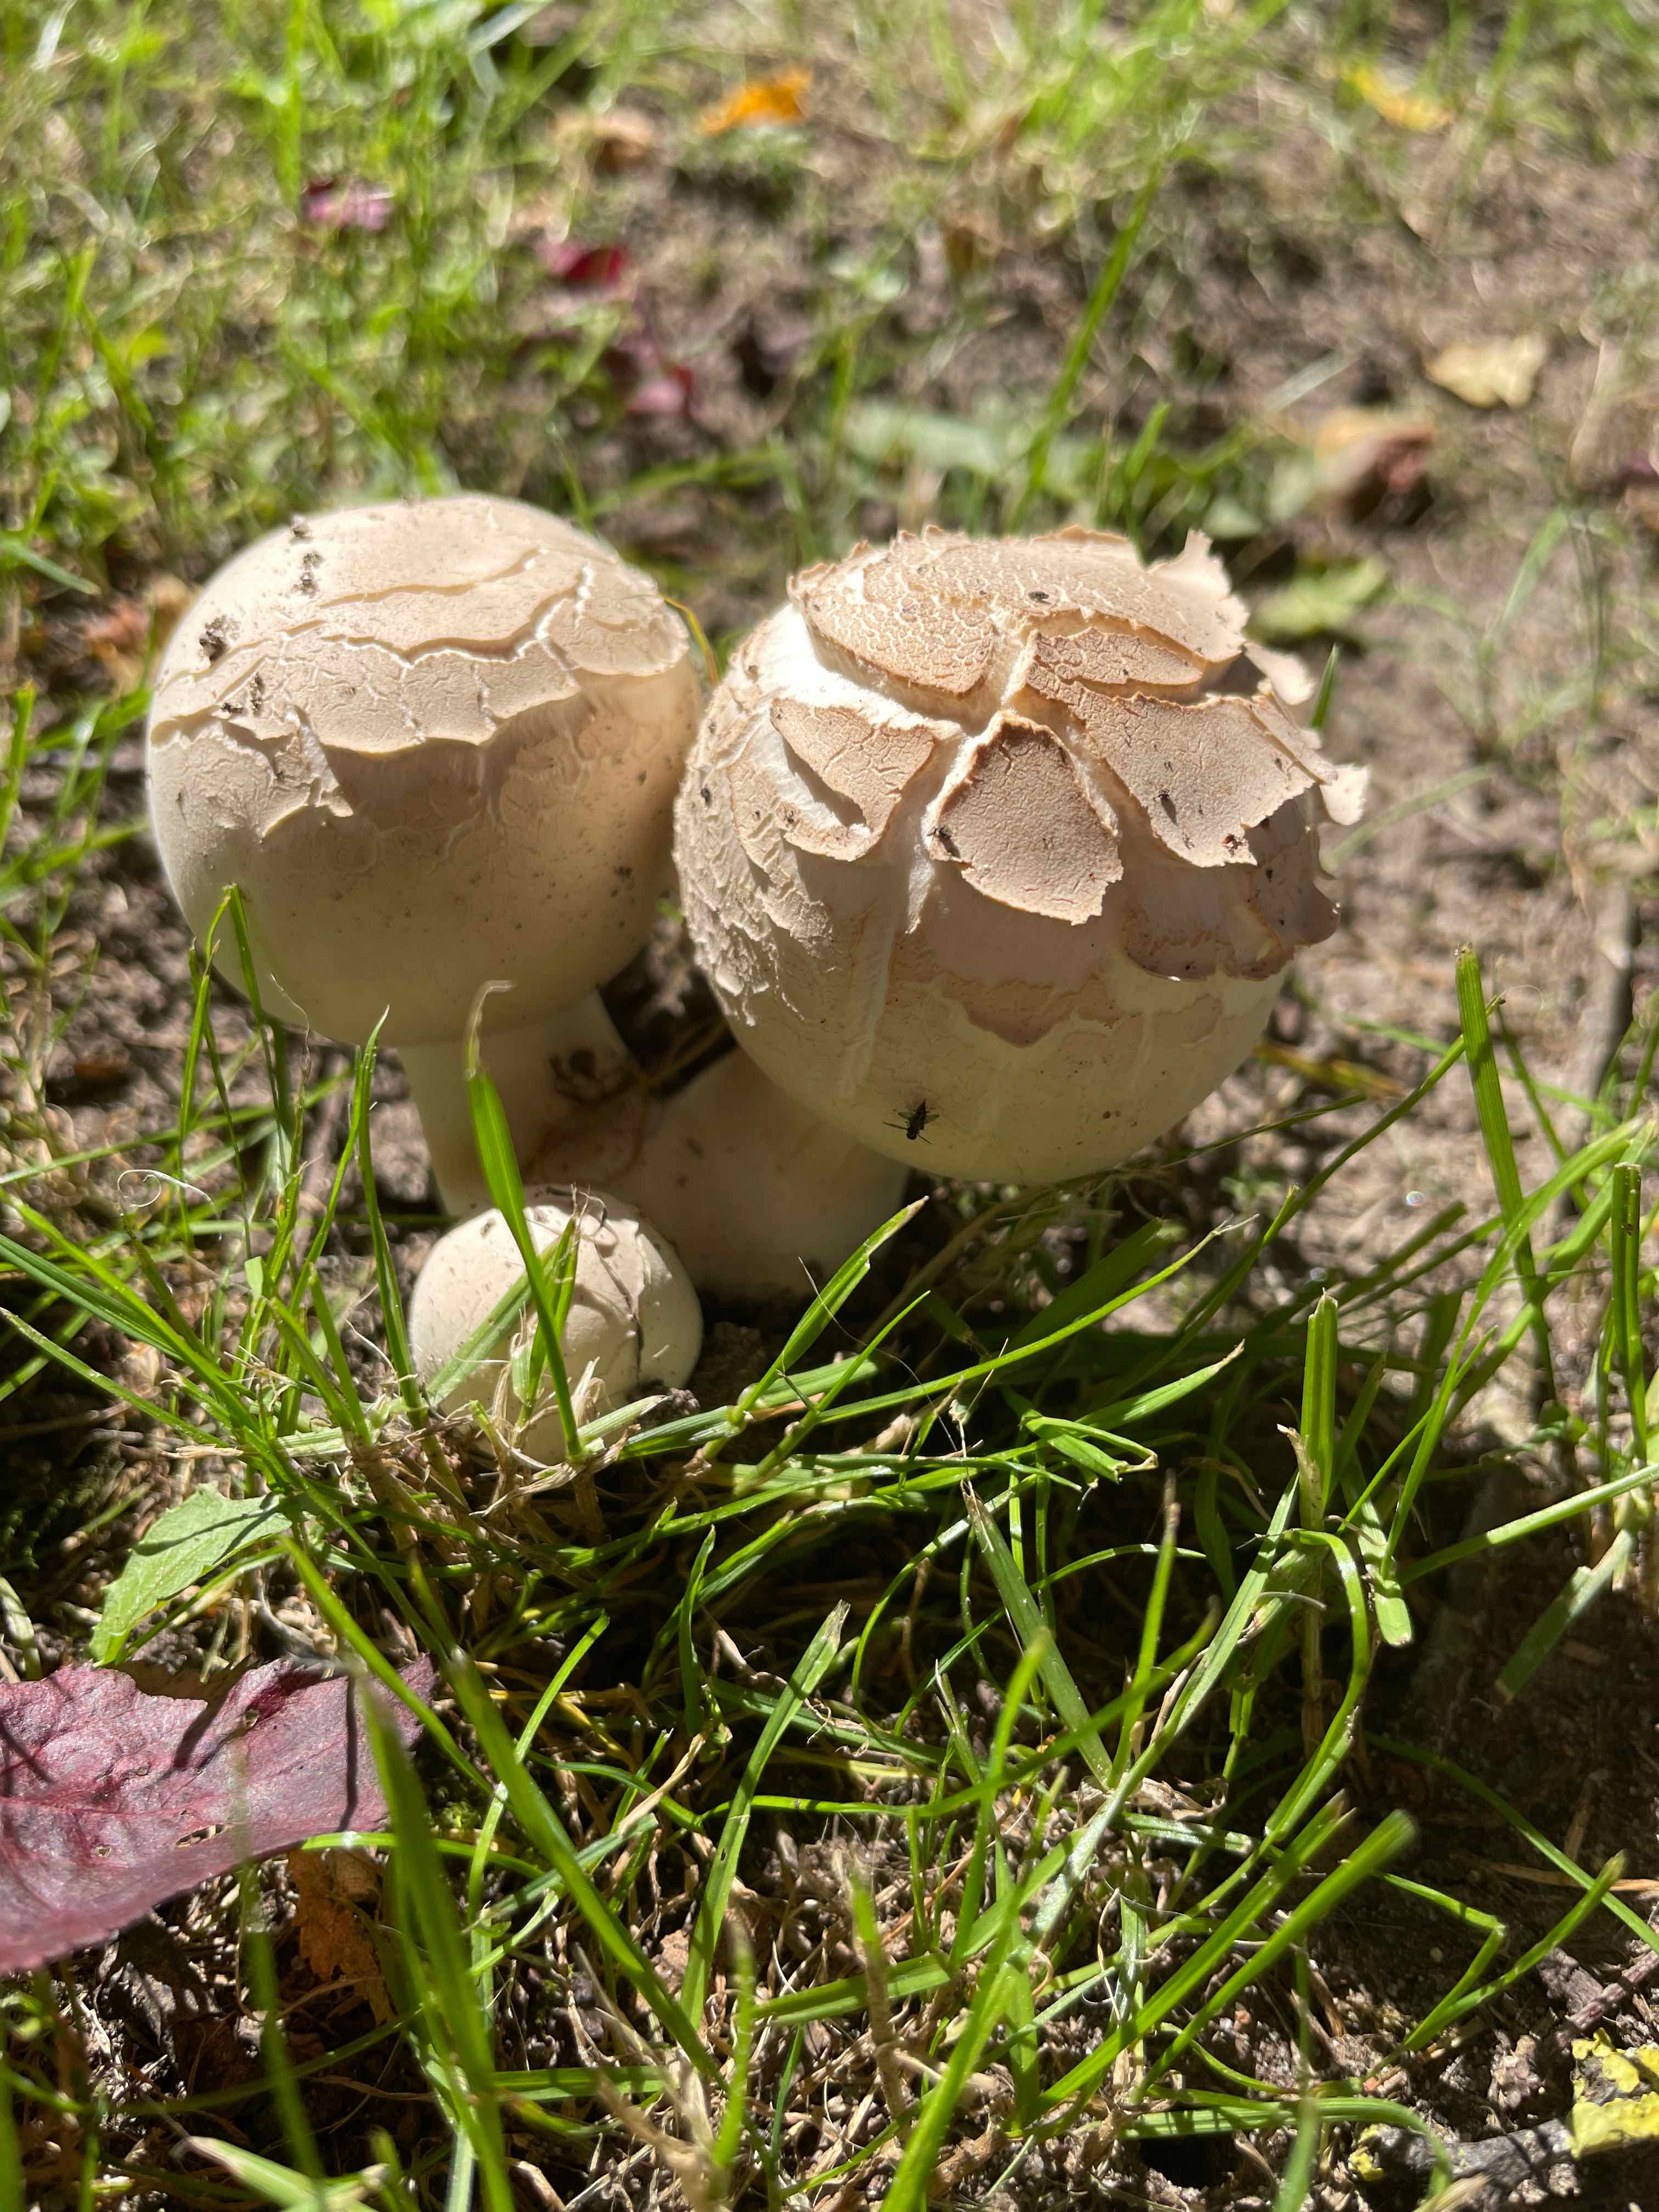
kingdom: Fungi
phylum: Basidiomycota
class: Agaricomycetes
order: Agaricales
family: Agaricaceae
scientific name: Agaricaceae
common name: champignonfamilien
